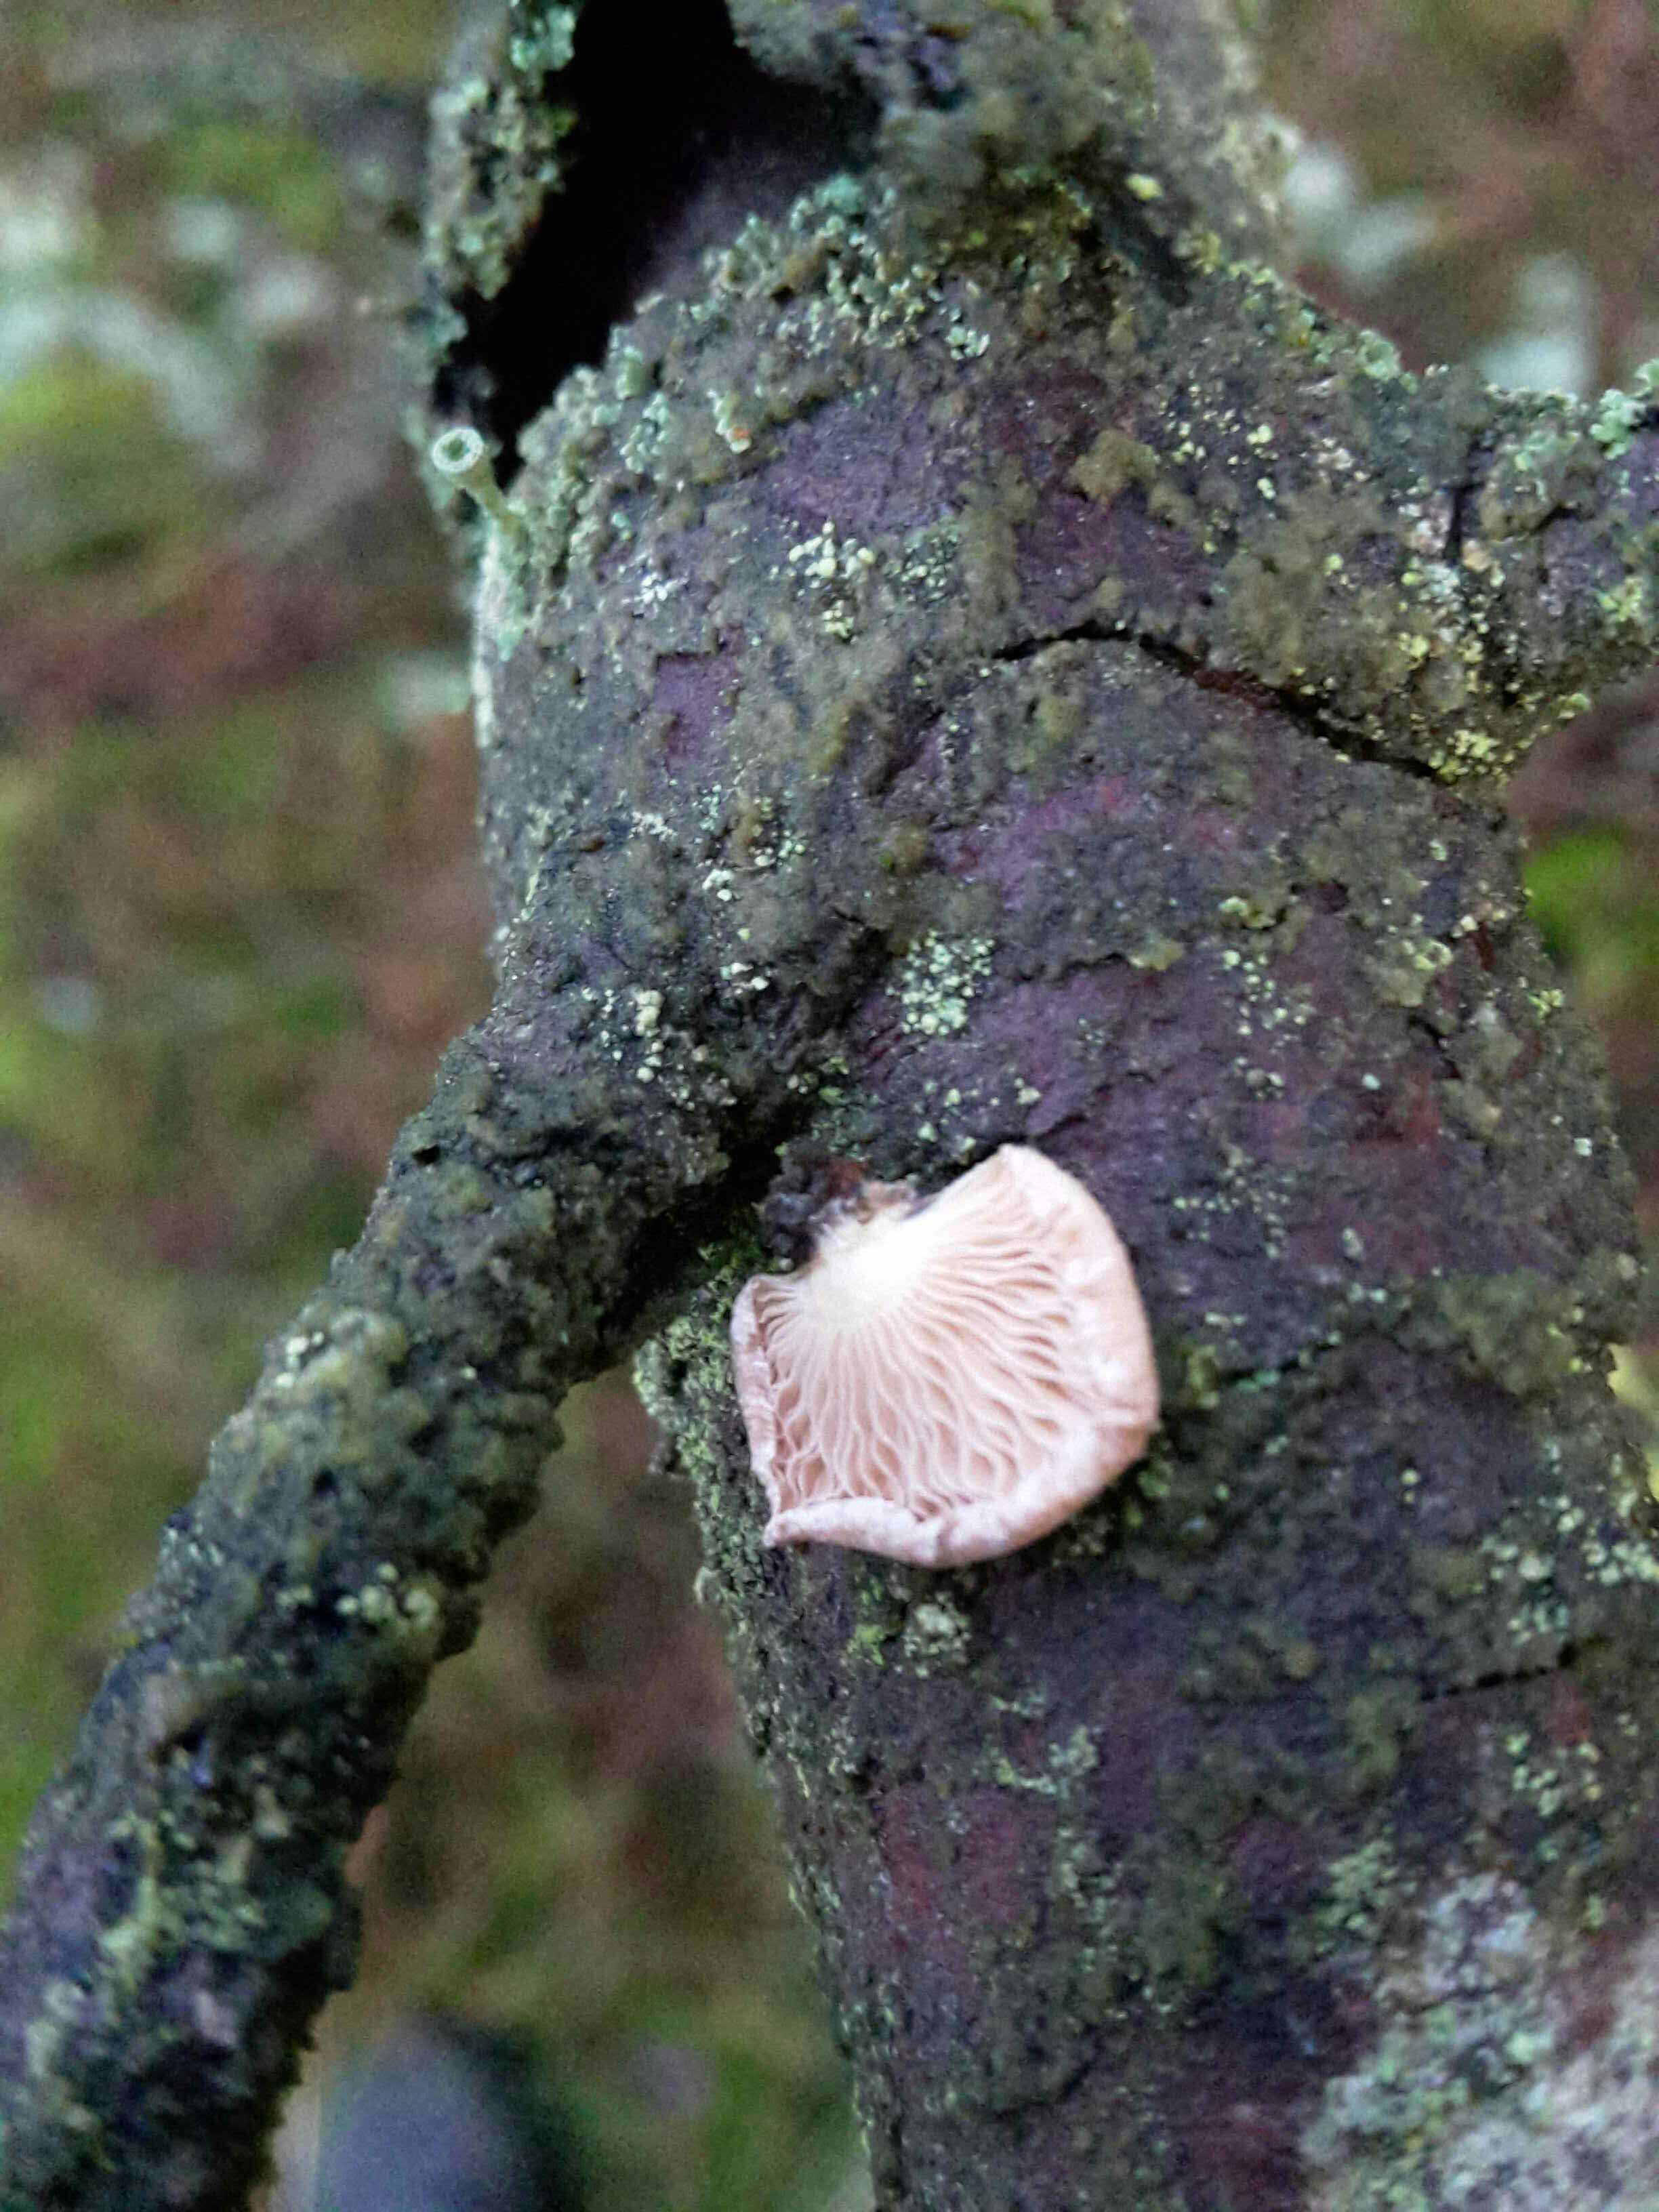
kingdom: Fungi
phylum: Basidiomycota
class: Agaricomycetes
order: Agaricales
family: Mycenaceae
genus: Panellus
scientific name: Panellus mitis
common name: mild epaulethat
